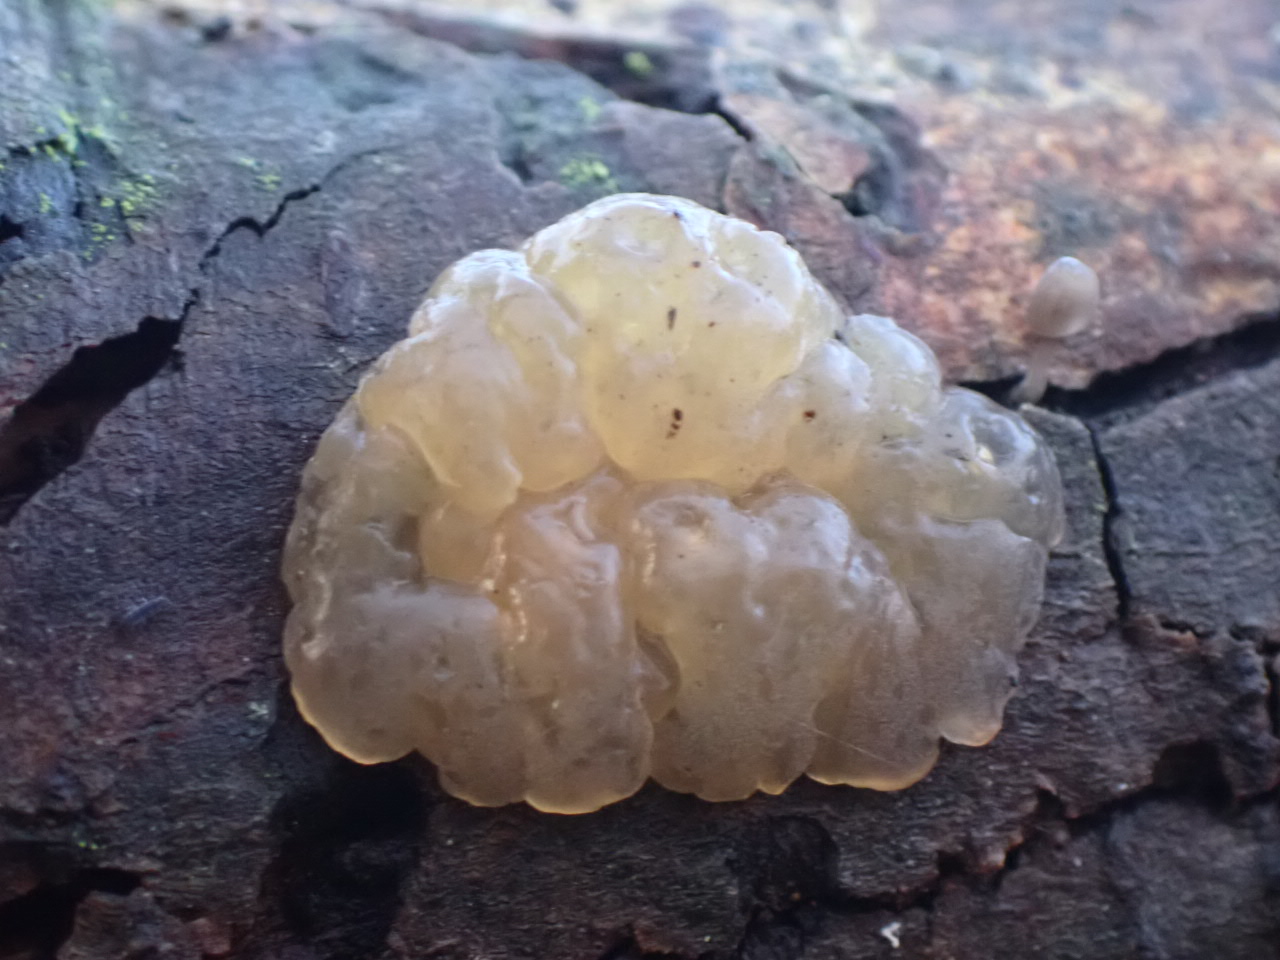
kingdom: Fungi
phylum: Basidiomycota
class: Agaricomycetes
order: Auriculariales
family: Hyaloriaceae
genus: Myxarium
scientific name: Myxarium nucleatum
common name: klar bævretop
